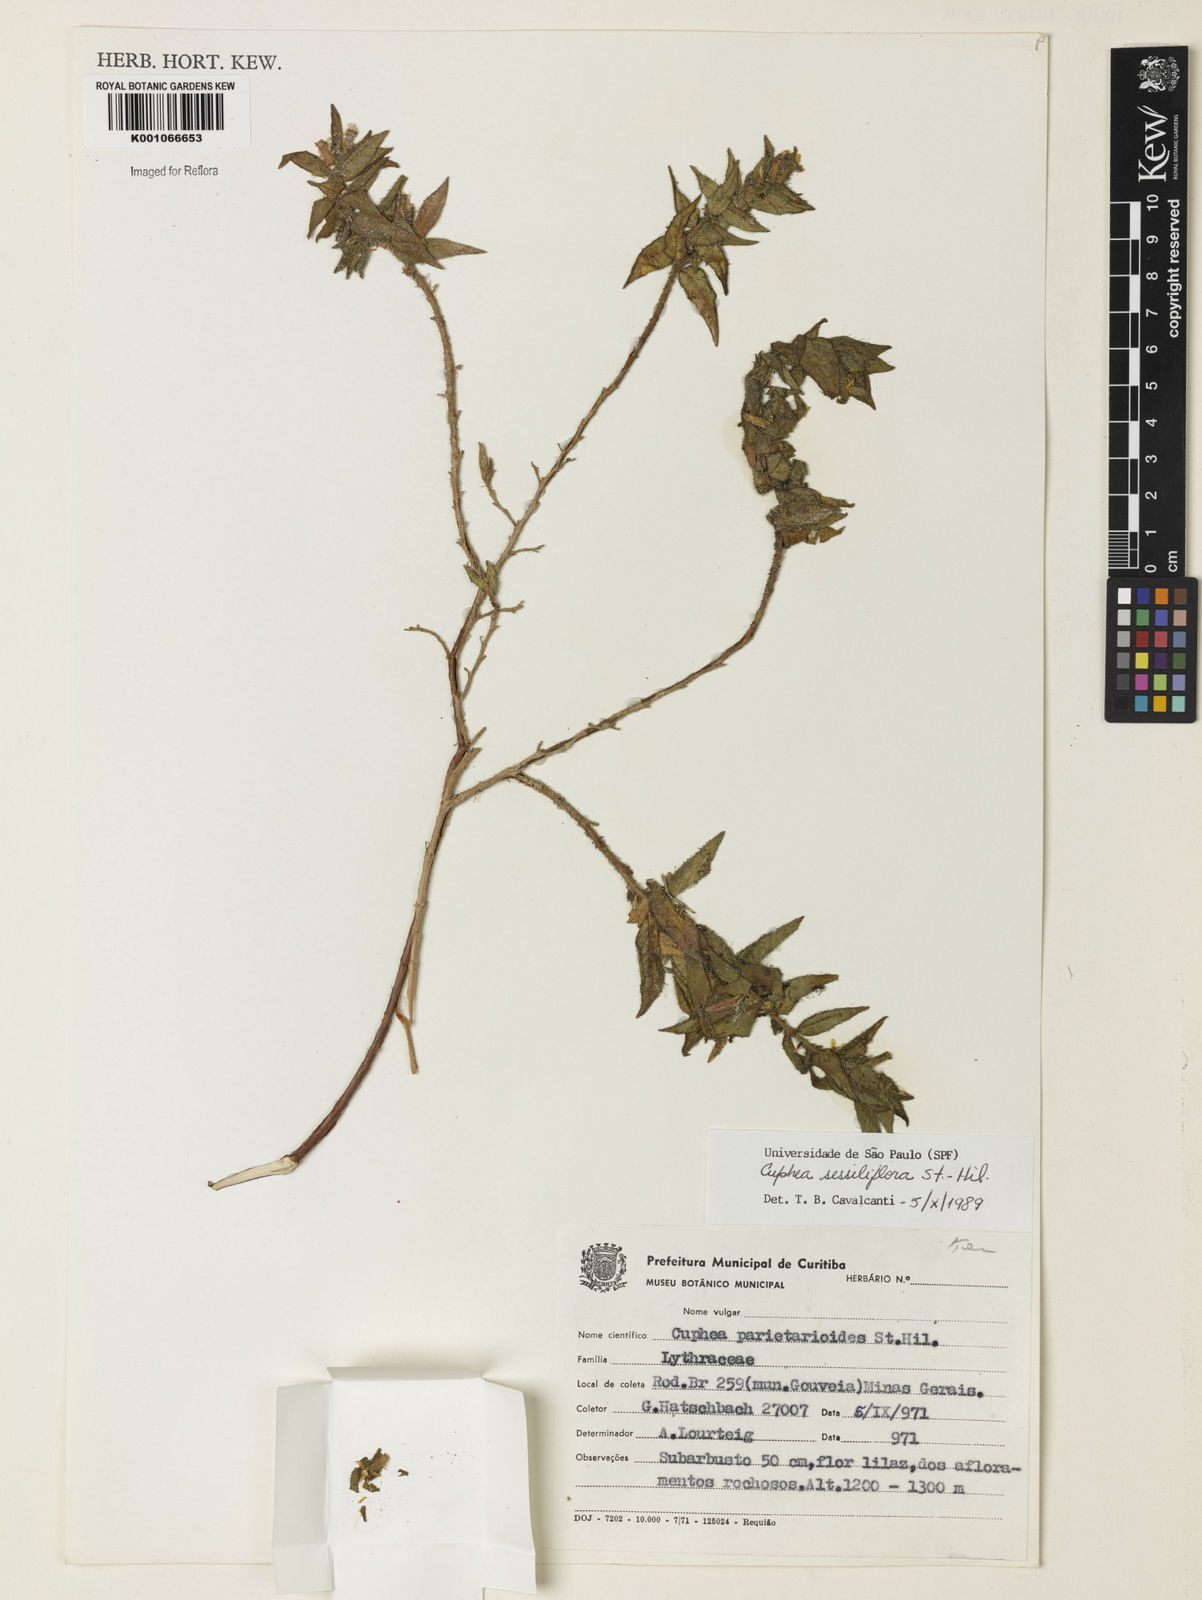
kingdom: Plantae
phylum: Tracheophyta
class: Magnoliopsida
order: Myrtales
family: Lythraceae
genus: Cuphea
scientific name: Cuphea sessiliflora
